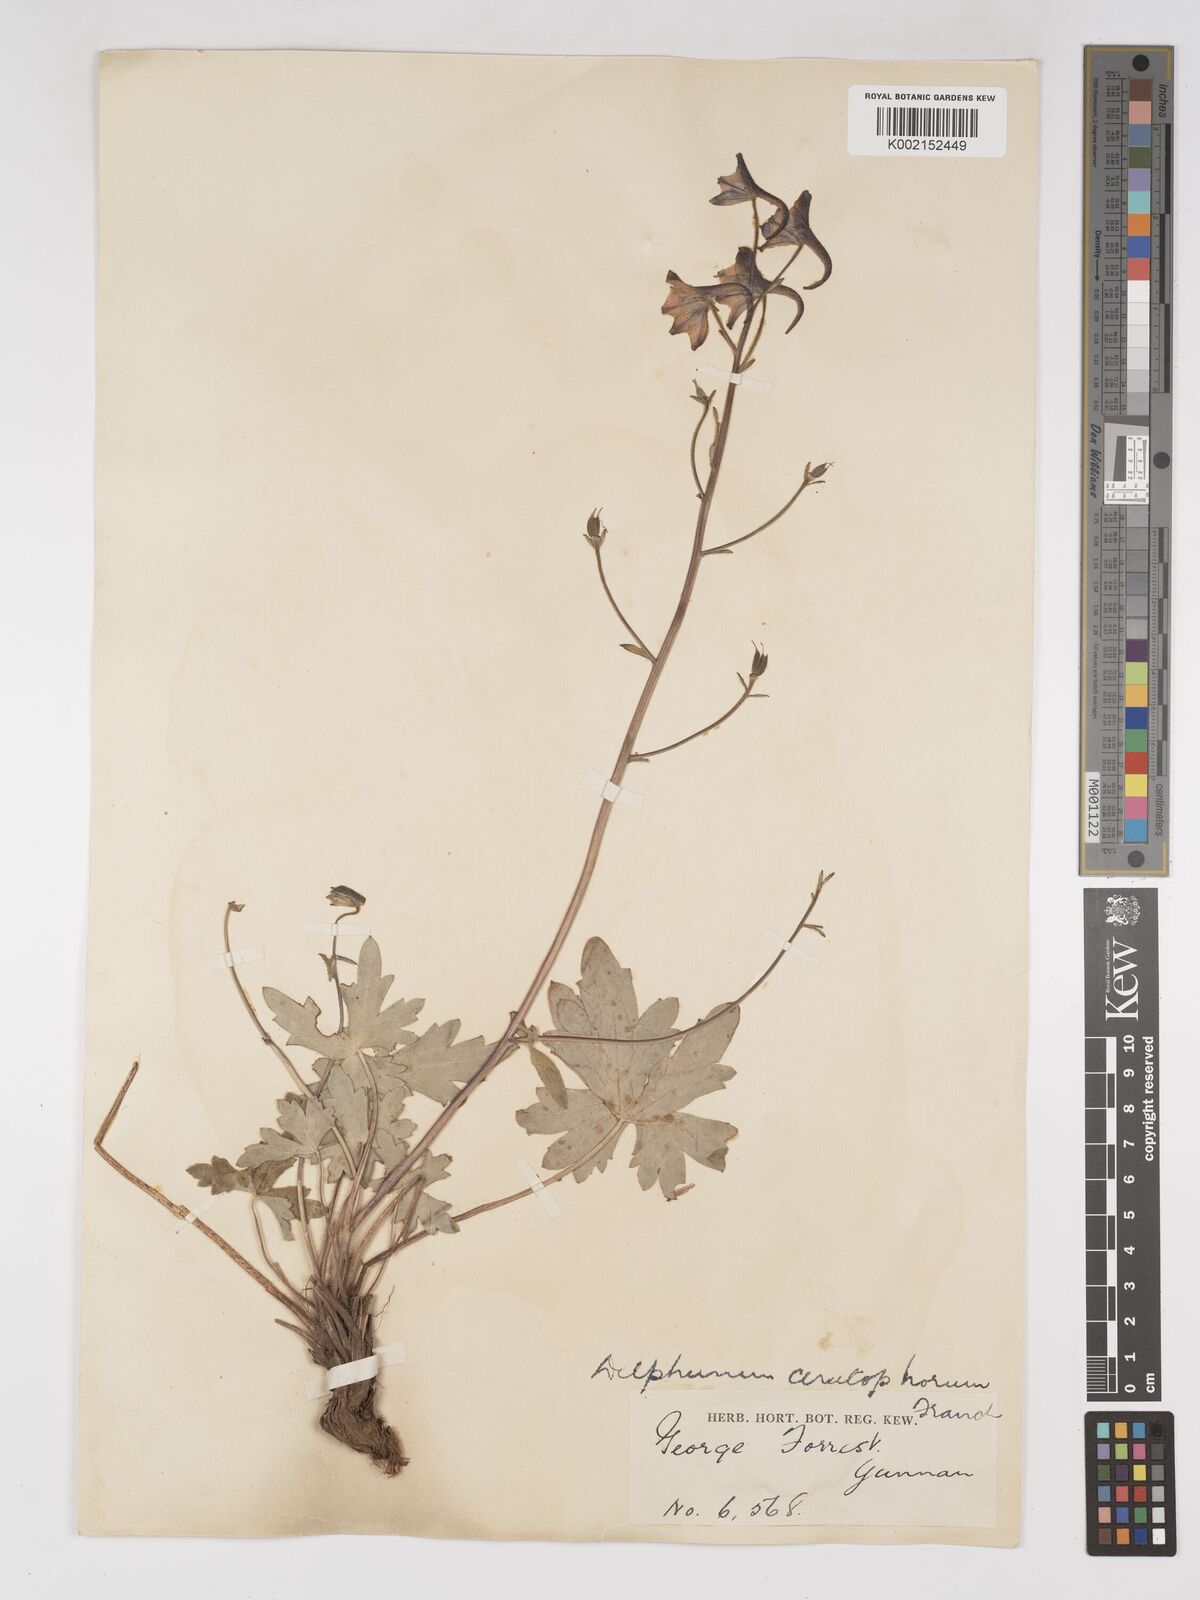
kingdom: Plantae
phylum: Tracheophyta
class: Magnoliopsida
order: Ranunculales
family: Ranunculaceae
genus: Delphinium
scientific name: Delphinium ceratophorum
